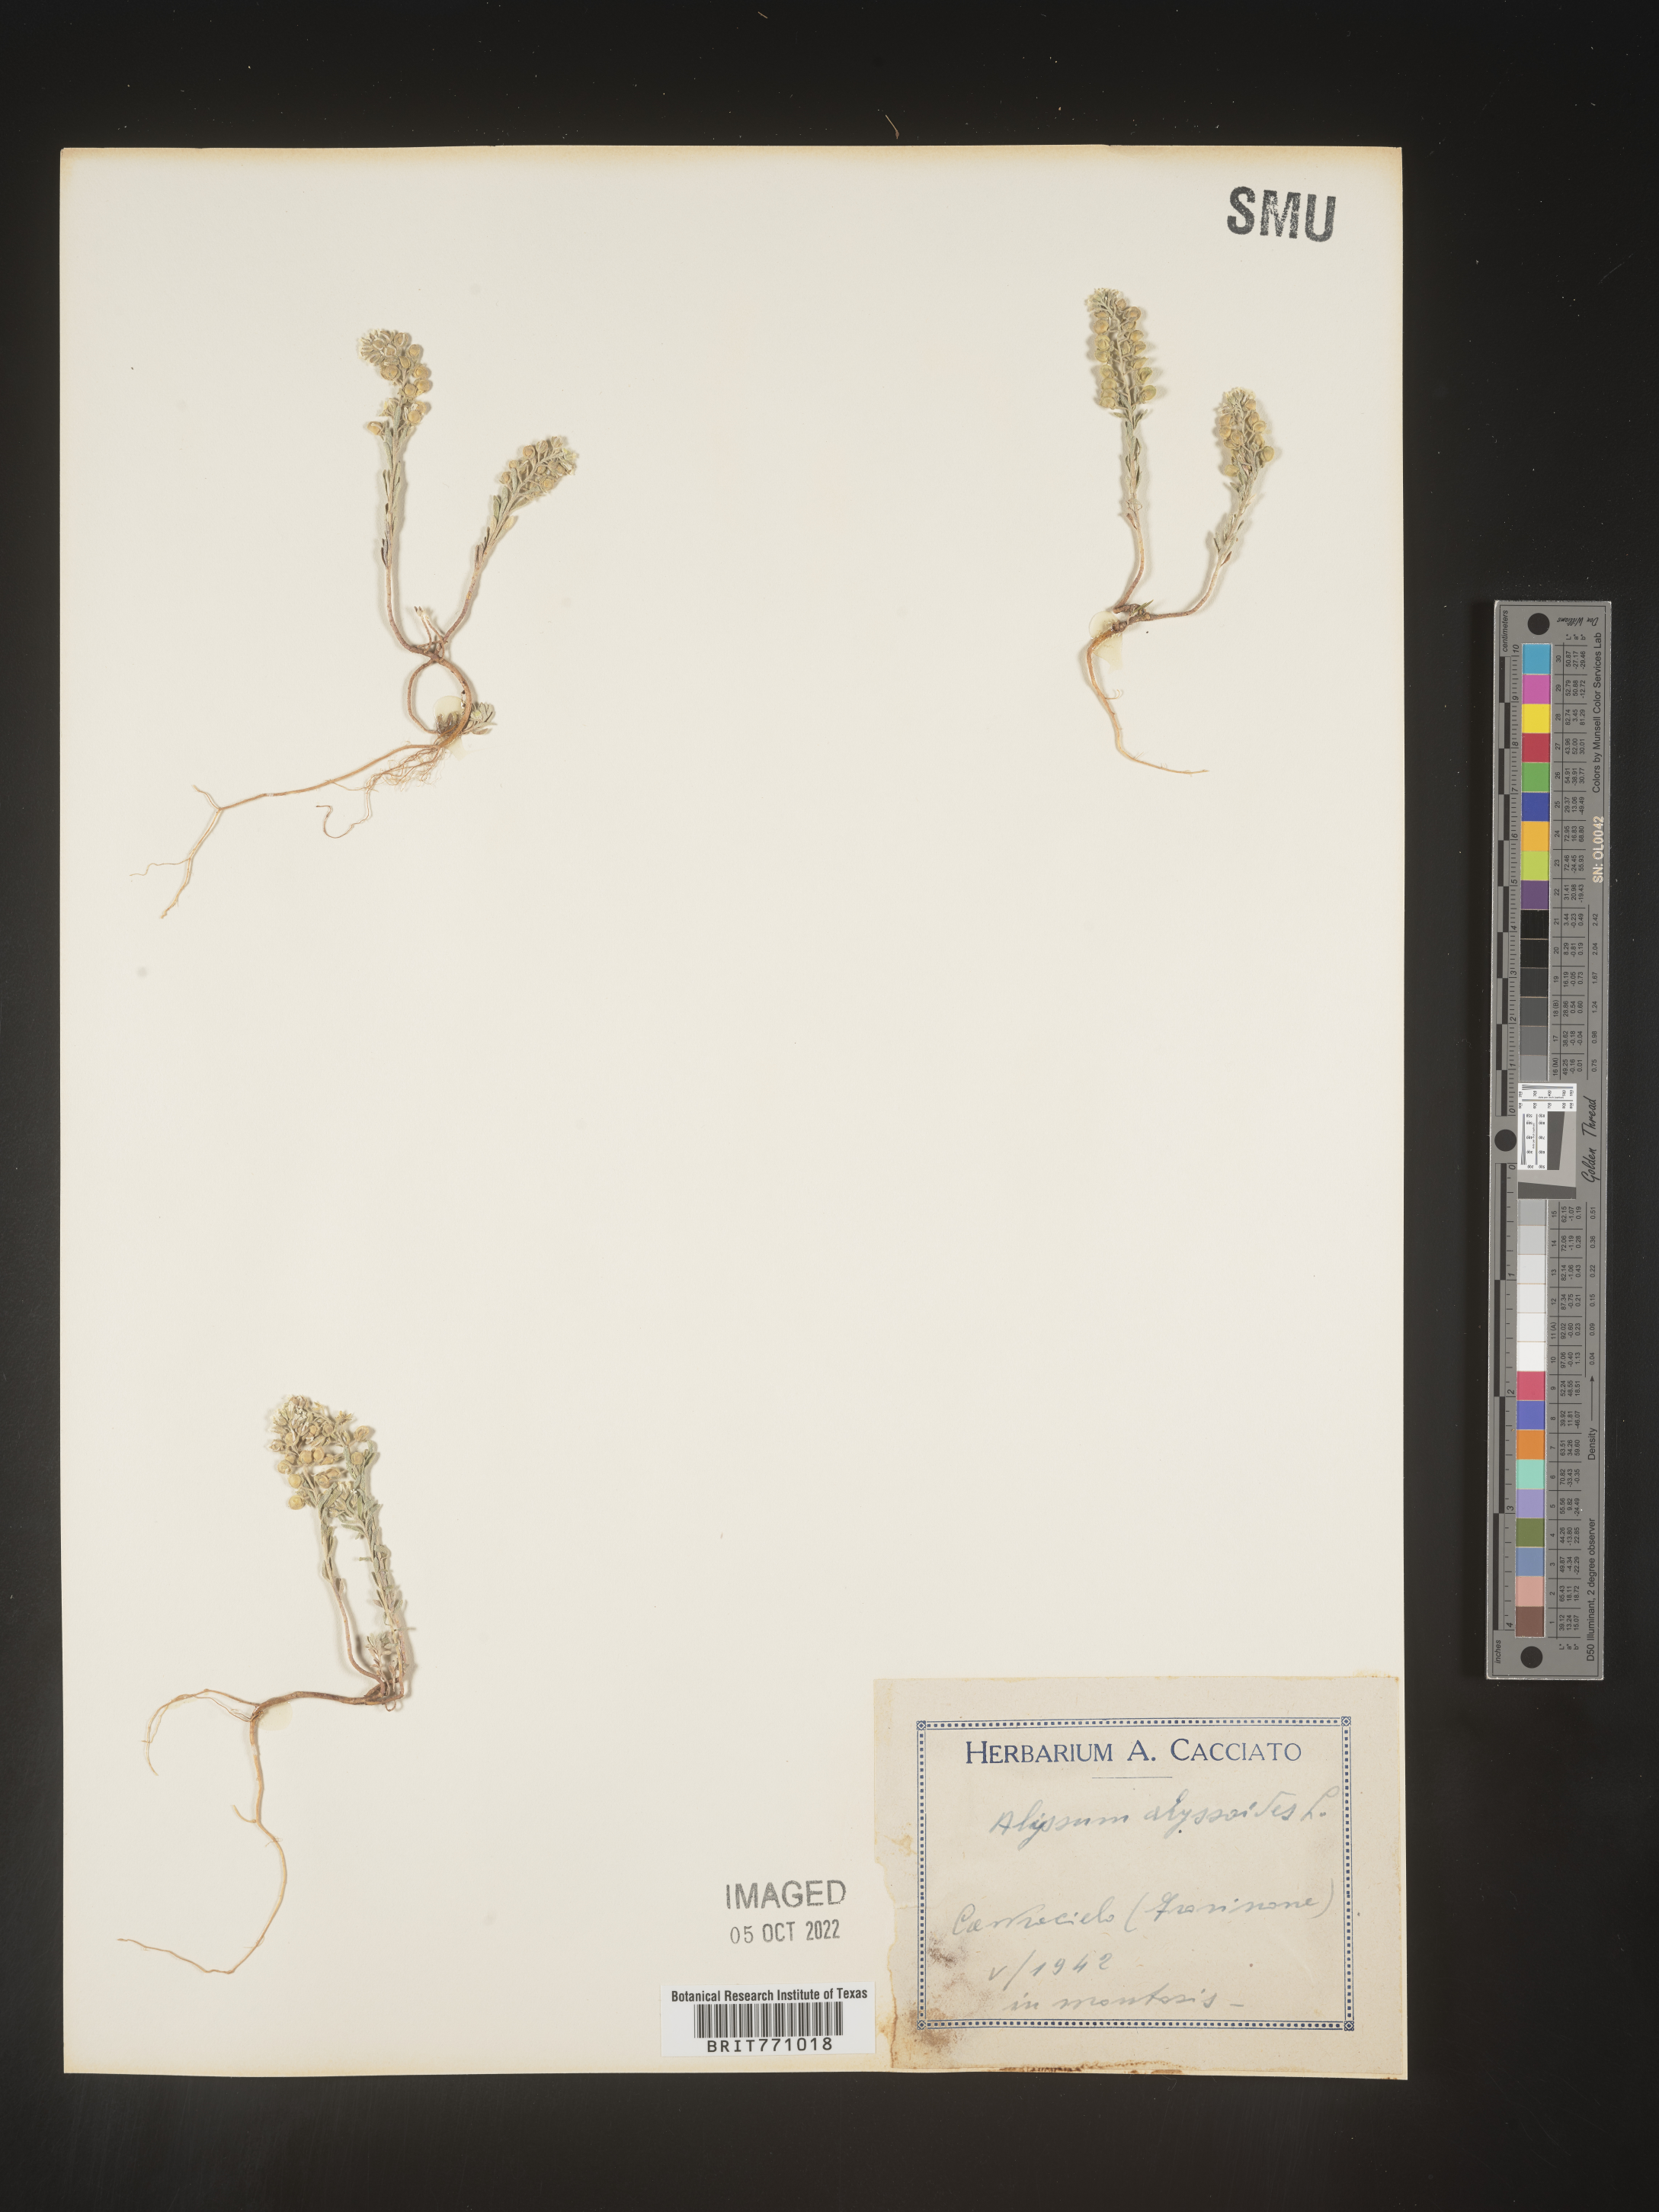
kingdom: Plantae
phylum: Tracheophyta
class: Magnoliopsida
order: Brassicales
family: Brassicaceae
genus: Alyssum
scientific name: Alyssum
